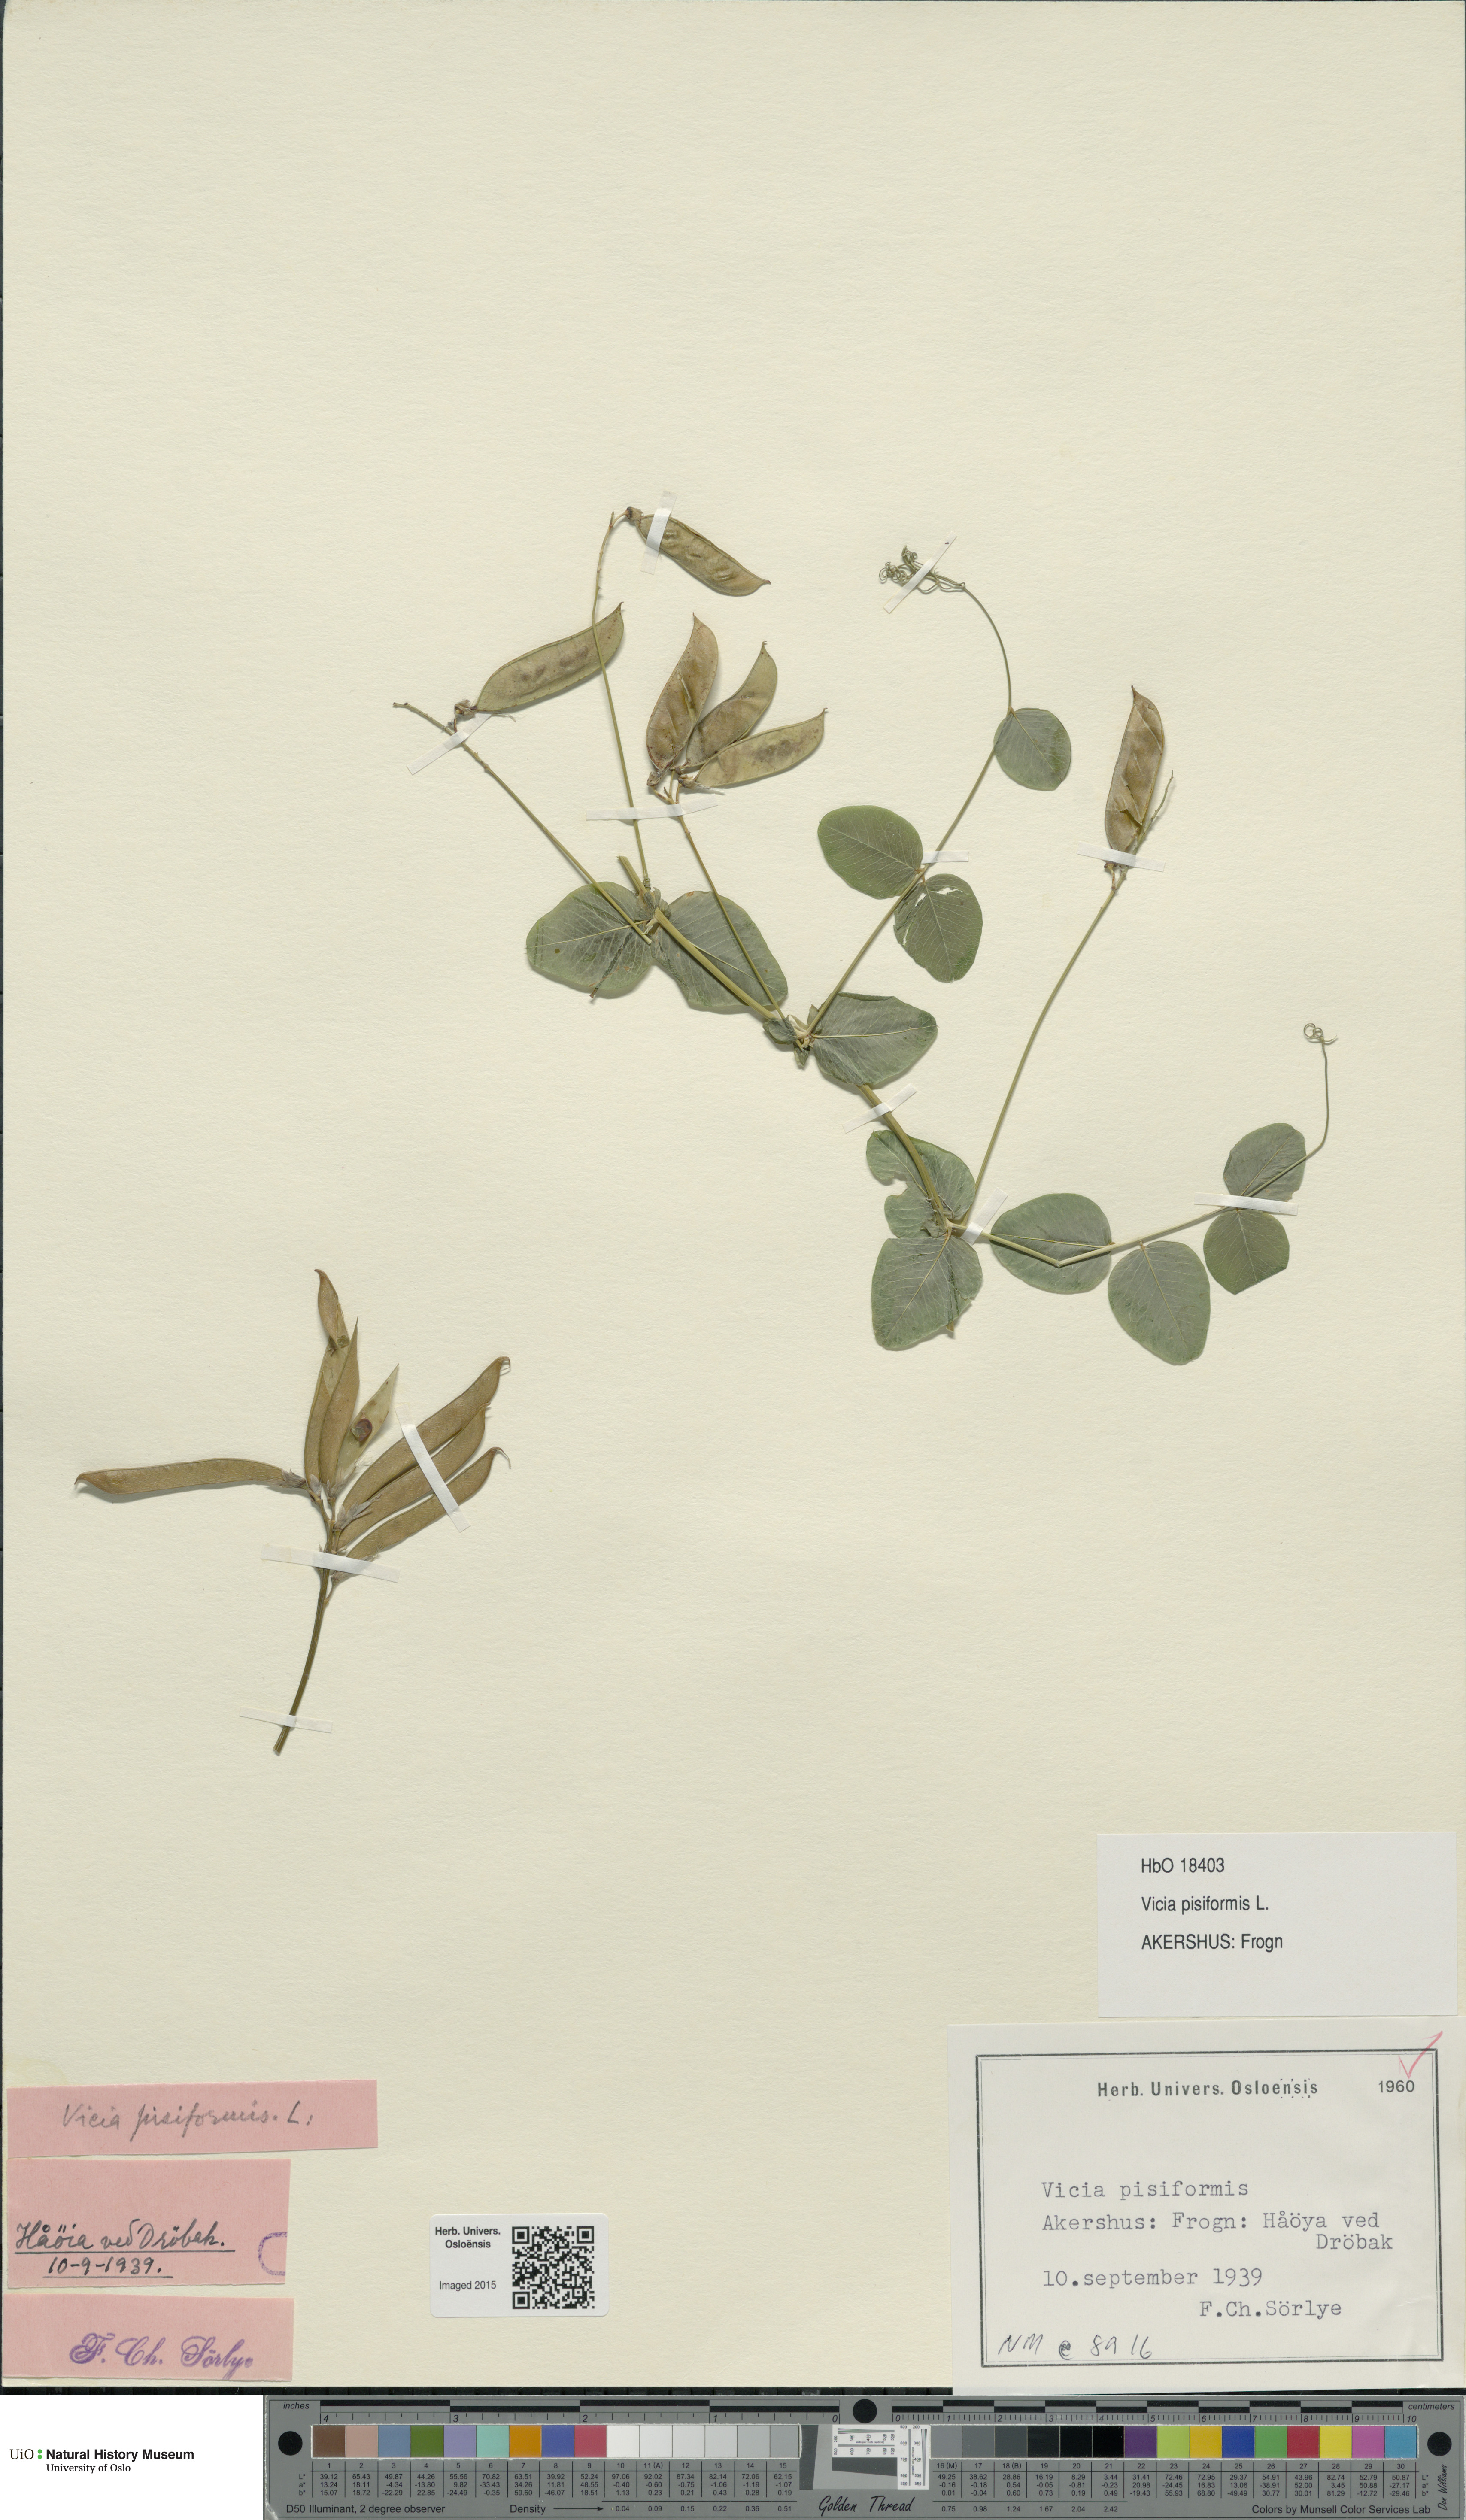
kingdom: Plantae
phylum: Tracheophyta
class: Magnoliopsida
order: Fabales
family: Fabaceae
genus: Vicia
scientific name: Vicia pisiformis
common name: Pale-flower vetch
